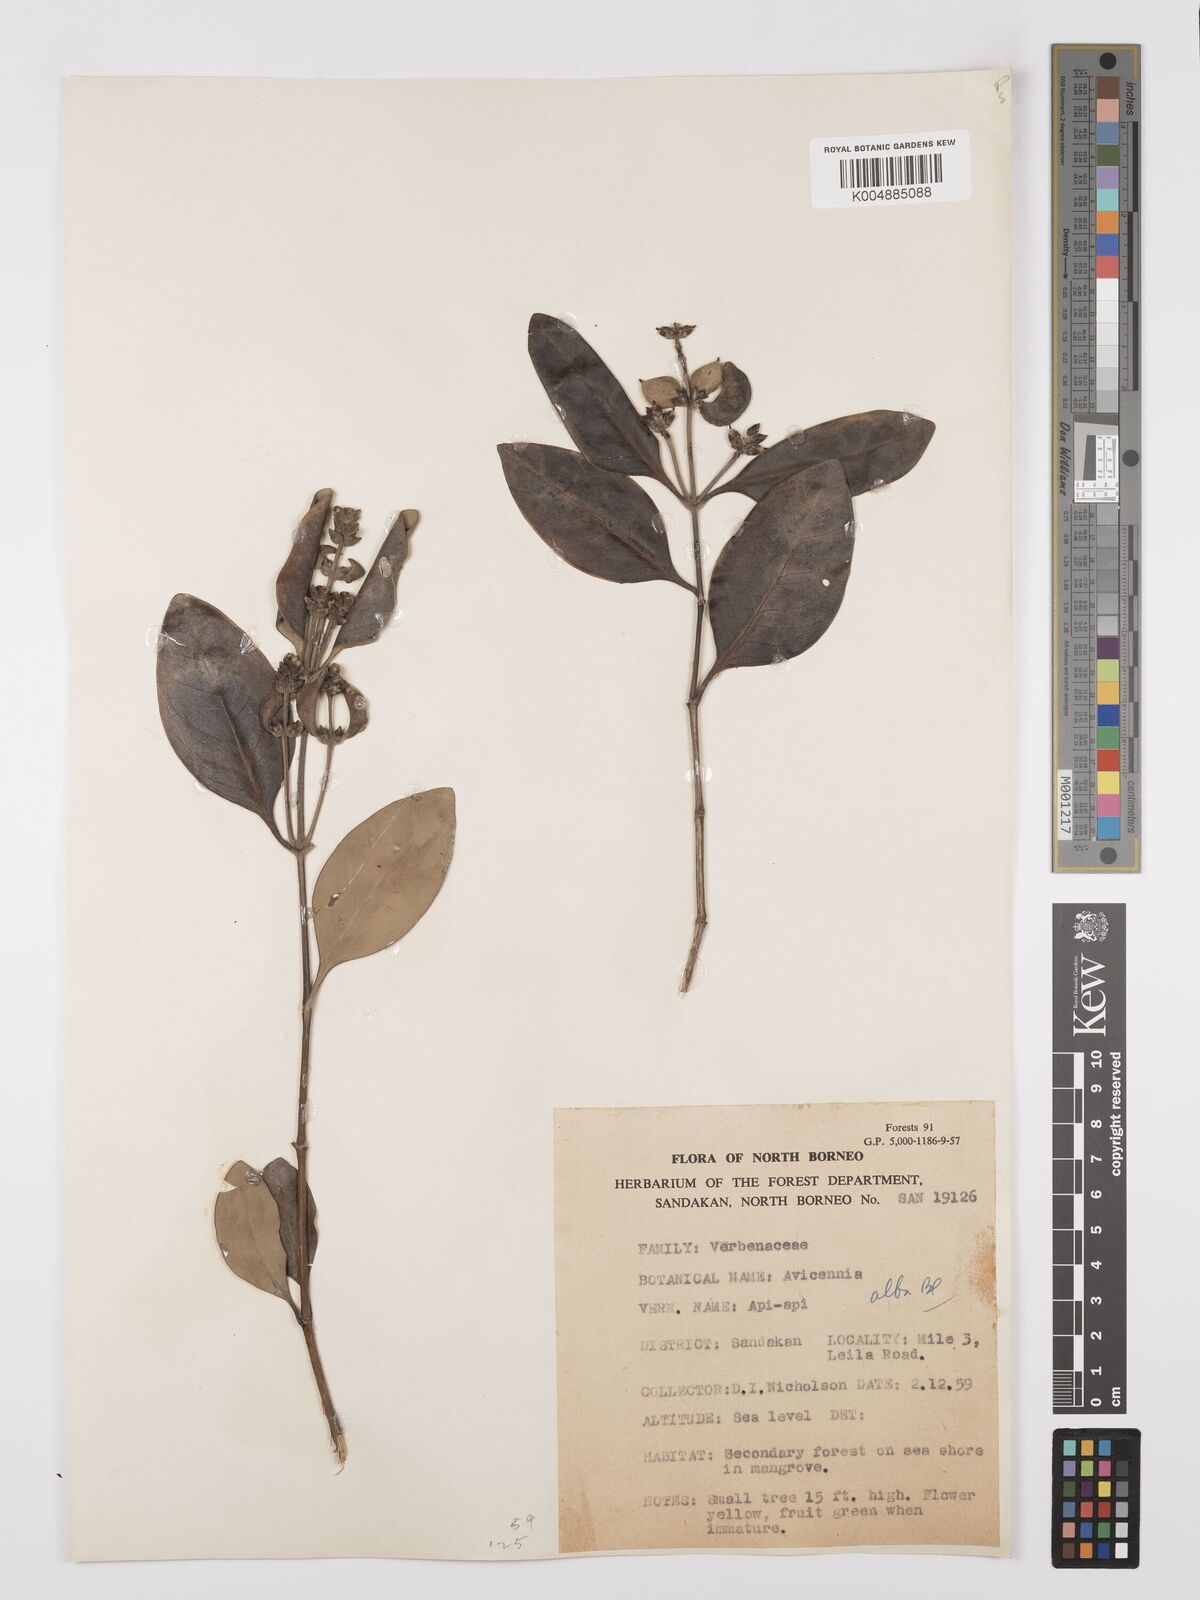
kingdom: Plantae
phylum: Tracheophyta
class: Magnoliopsida
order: Lamiales
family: Acanthaceae
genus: Avicennia
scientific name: Avicennia alba
